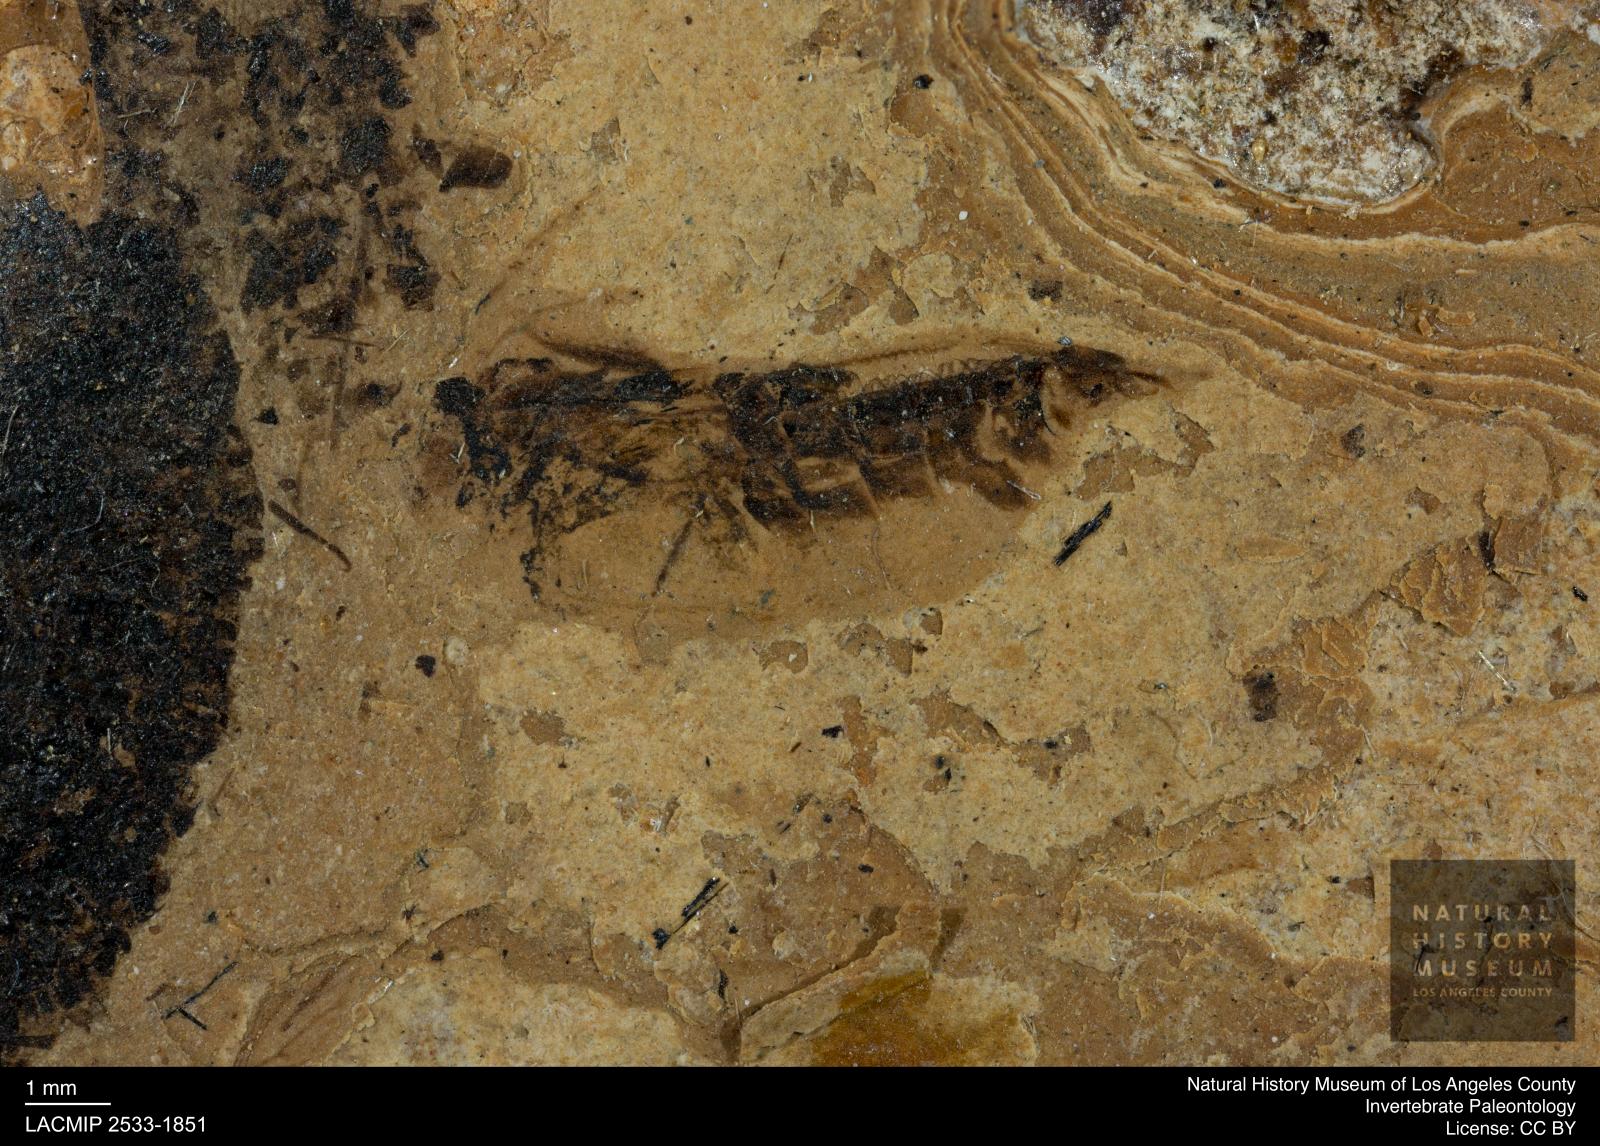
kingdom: Animalia
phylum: Arthropoda
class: Insecta
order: Hemiptera
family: Notonectidae
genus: Notonecta
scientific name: Notonecta
